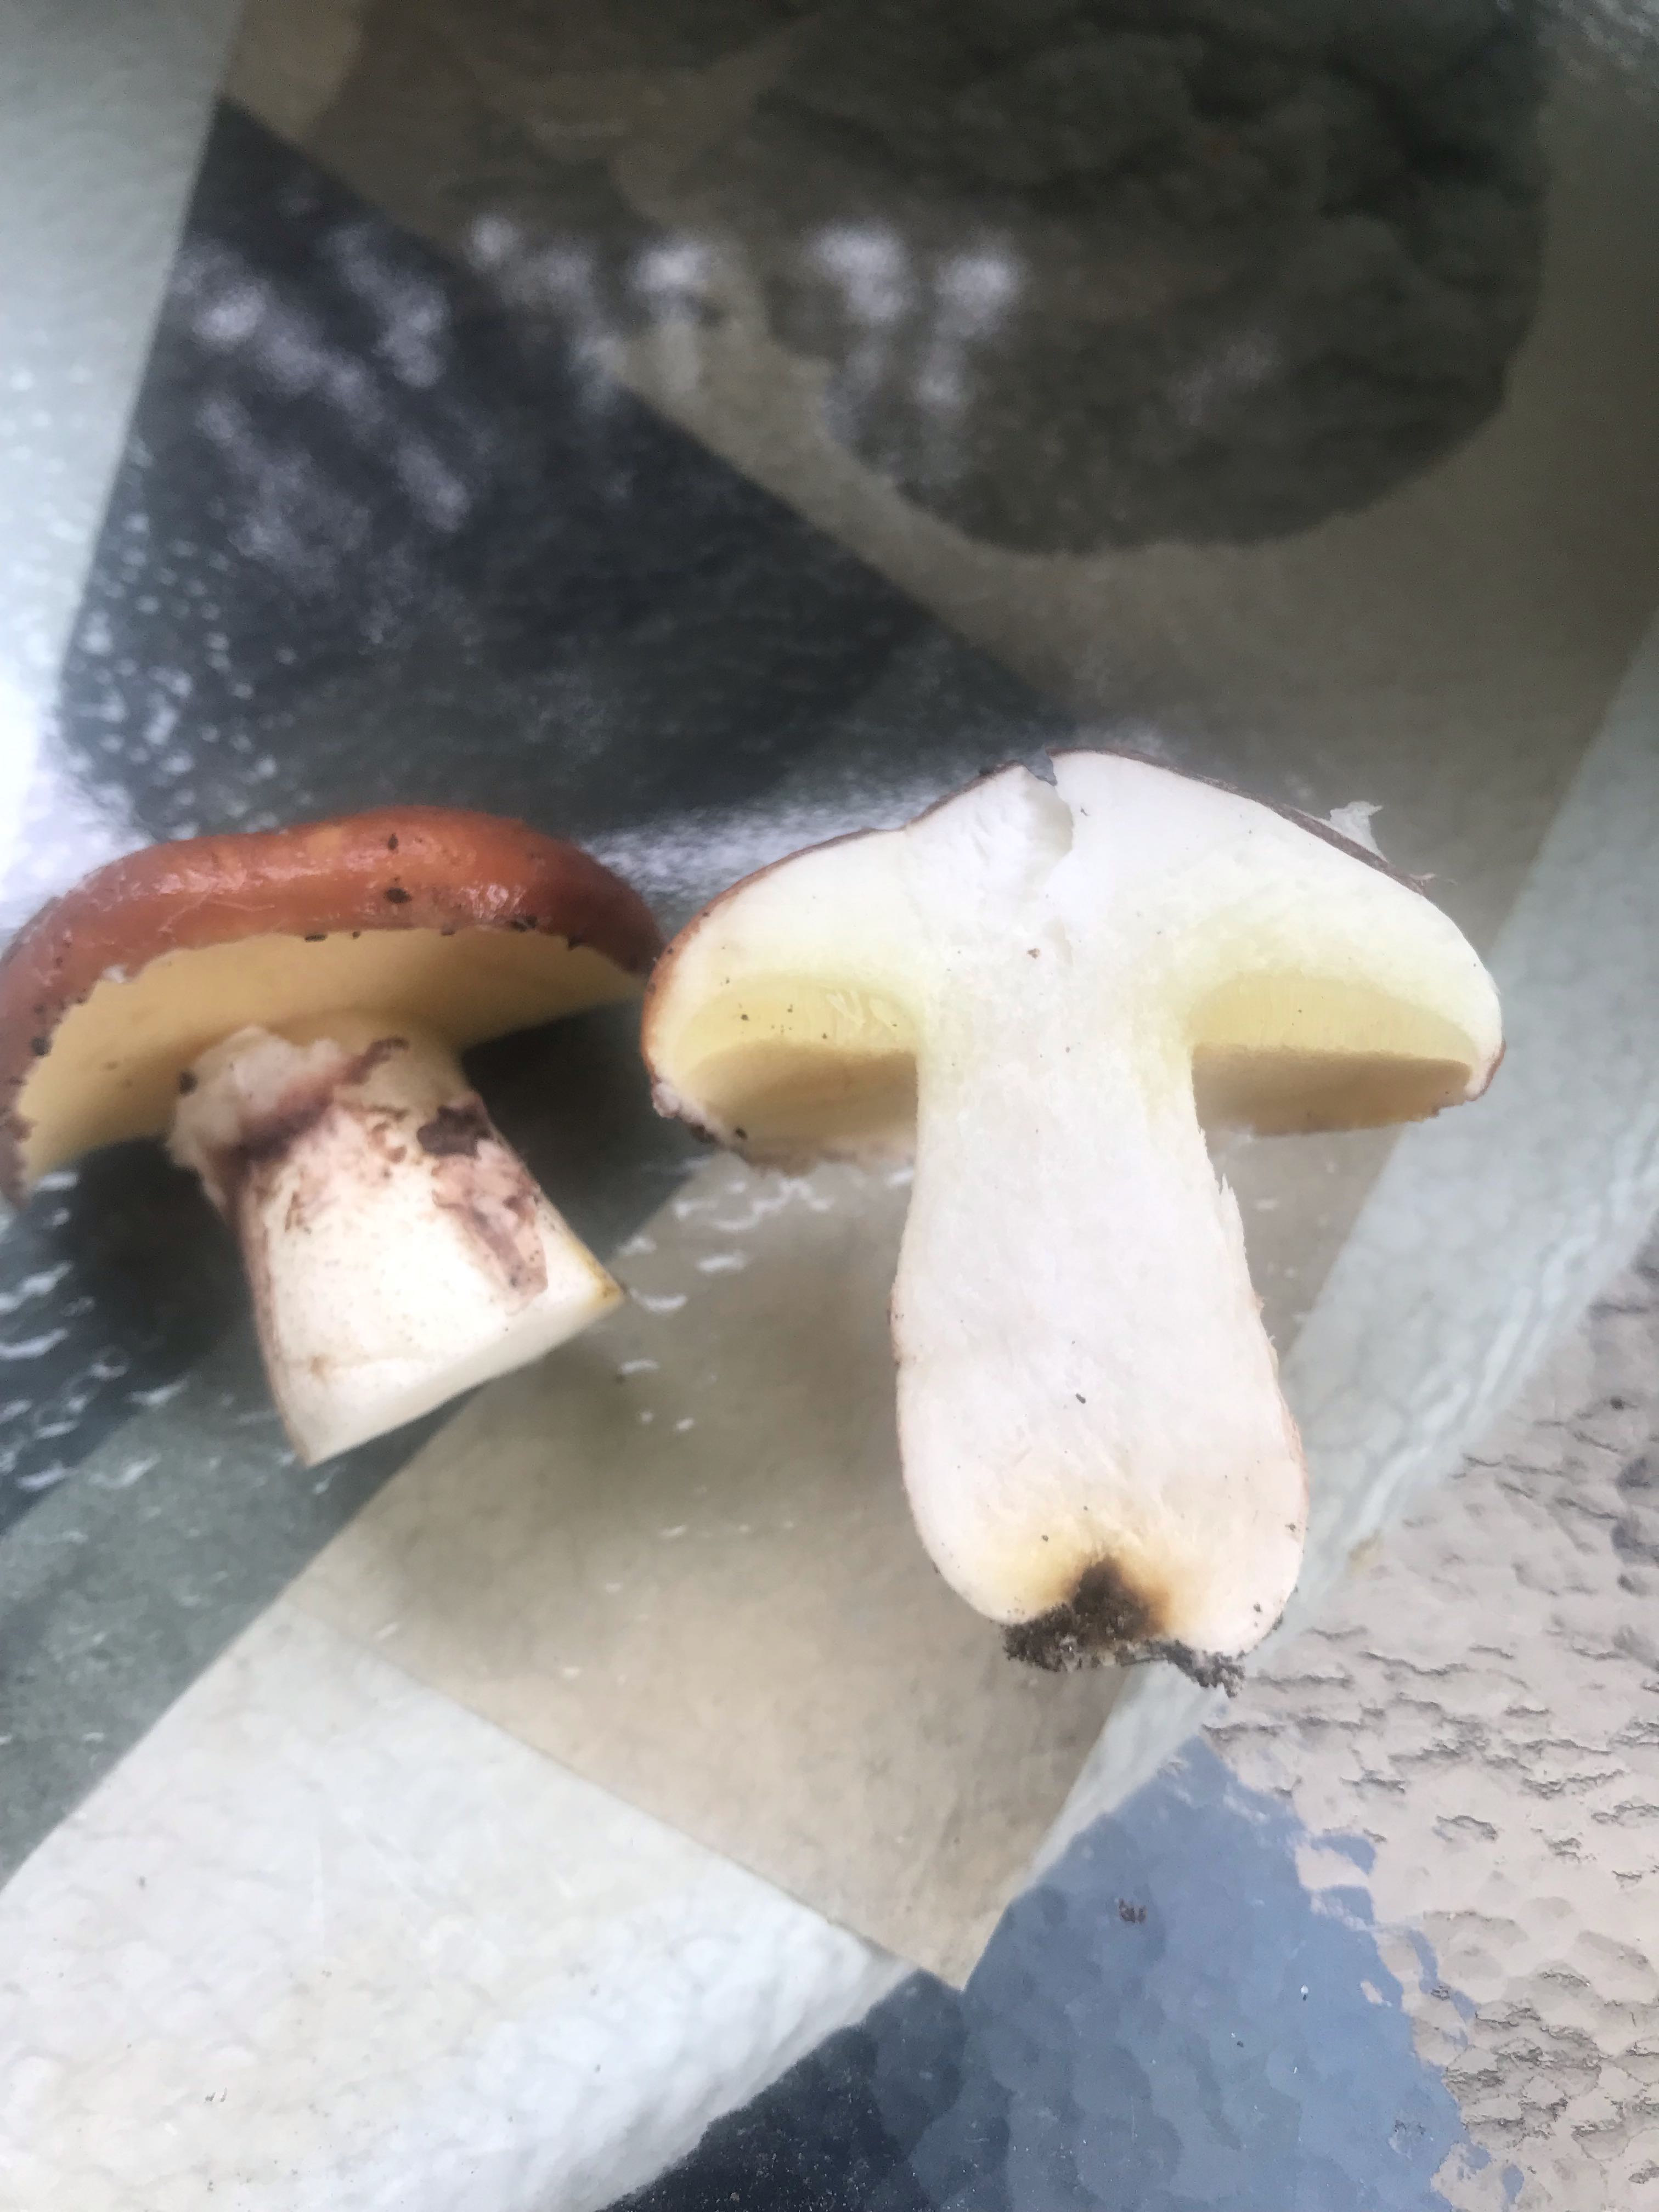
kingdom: Fungi
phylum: Basidiomycota
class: Agaricomycetes
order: Boletales
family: Suillaceae
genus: Suillus
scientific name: Suillus luteus
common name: brungul slimrørhat
